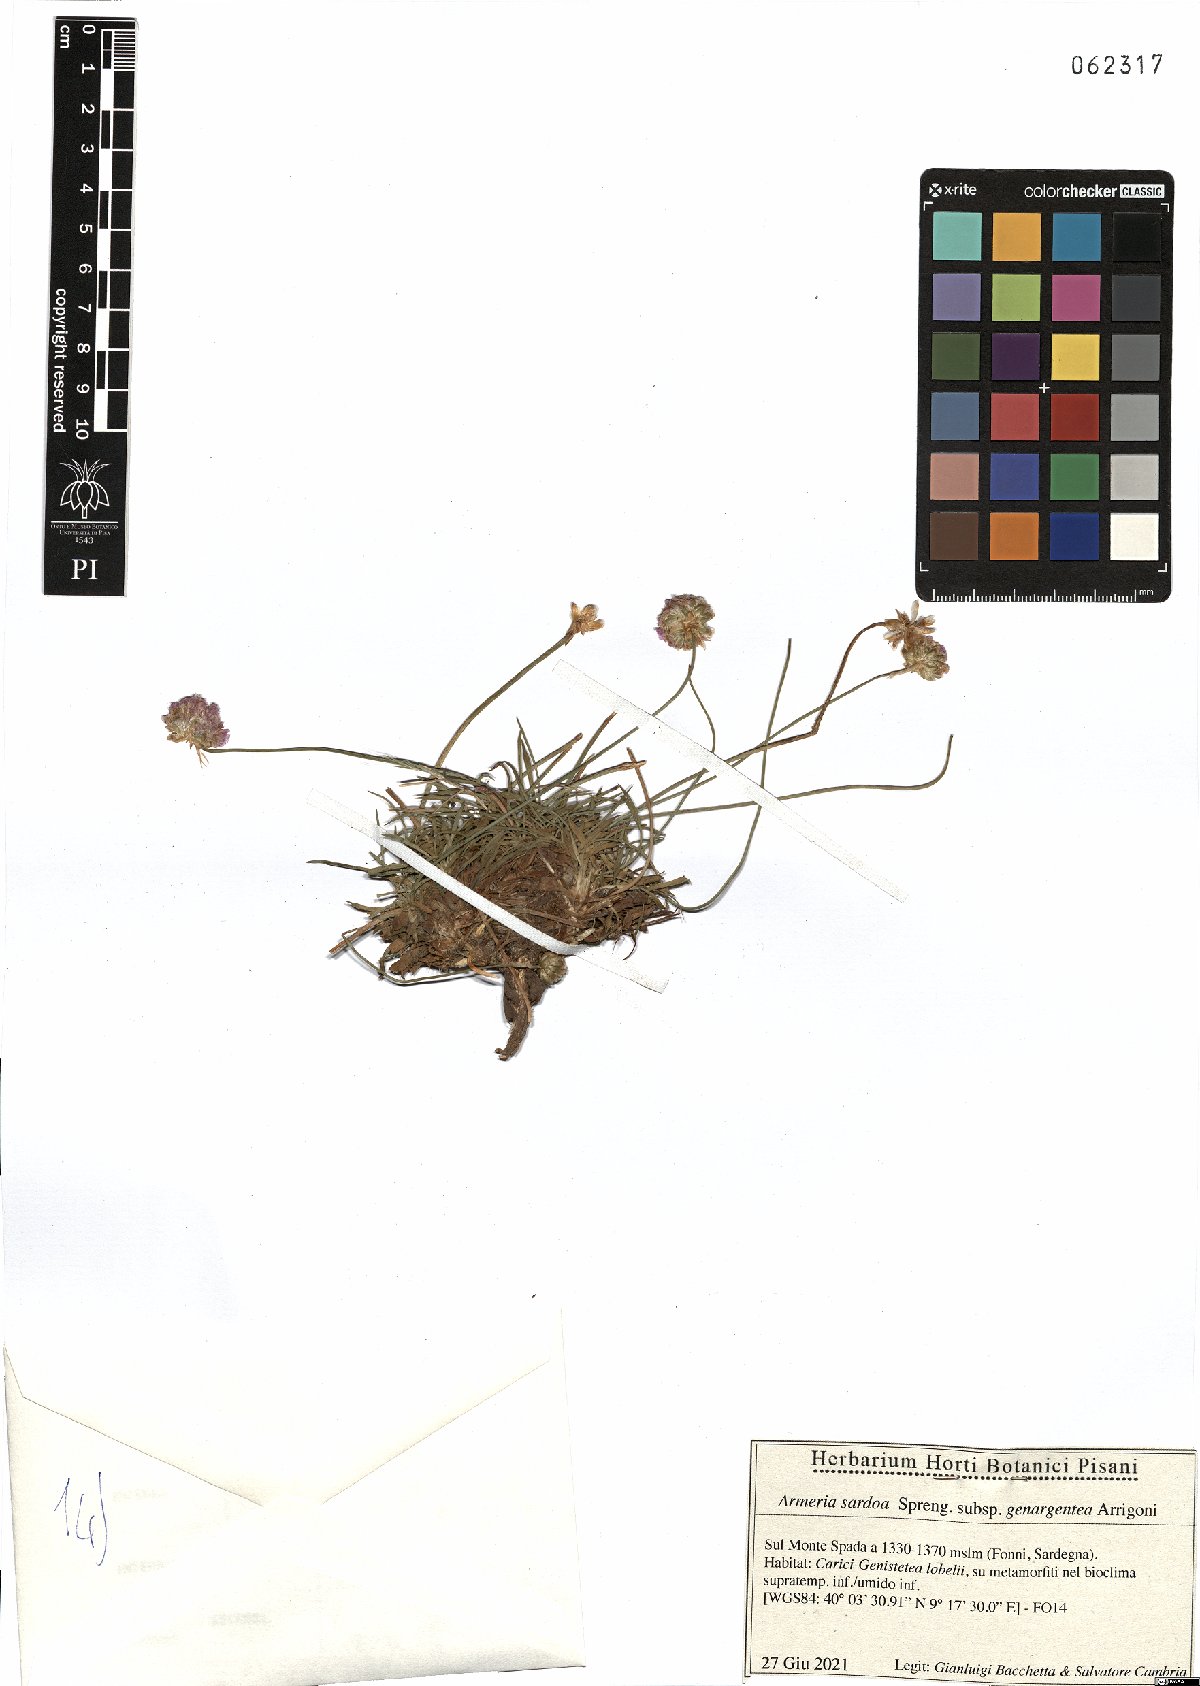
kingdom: Plantae
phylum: Tracheophyta
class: Magnoliopsida
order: Caryophyllales
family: Plumbaginaceae
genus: Armeria
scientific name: Armeria sardoa
